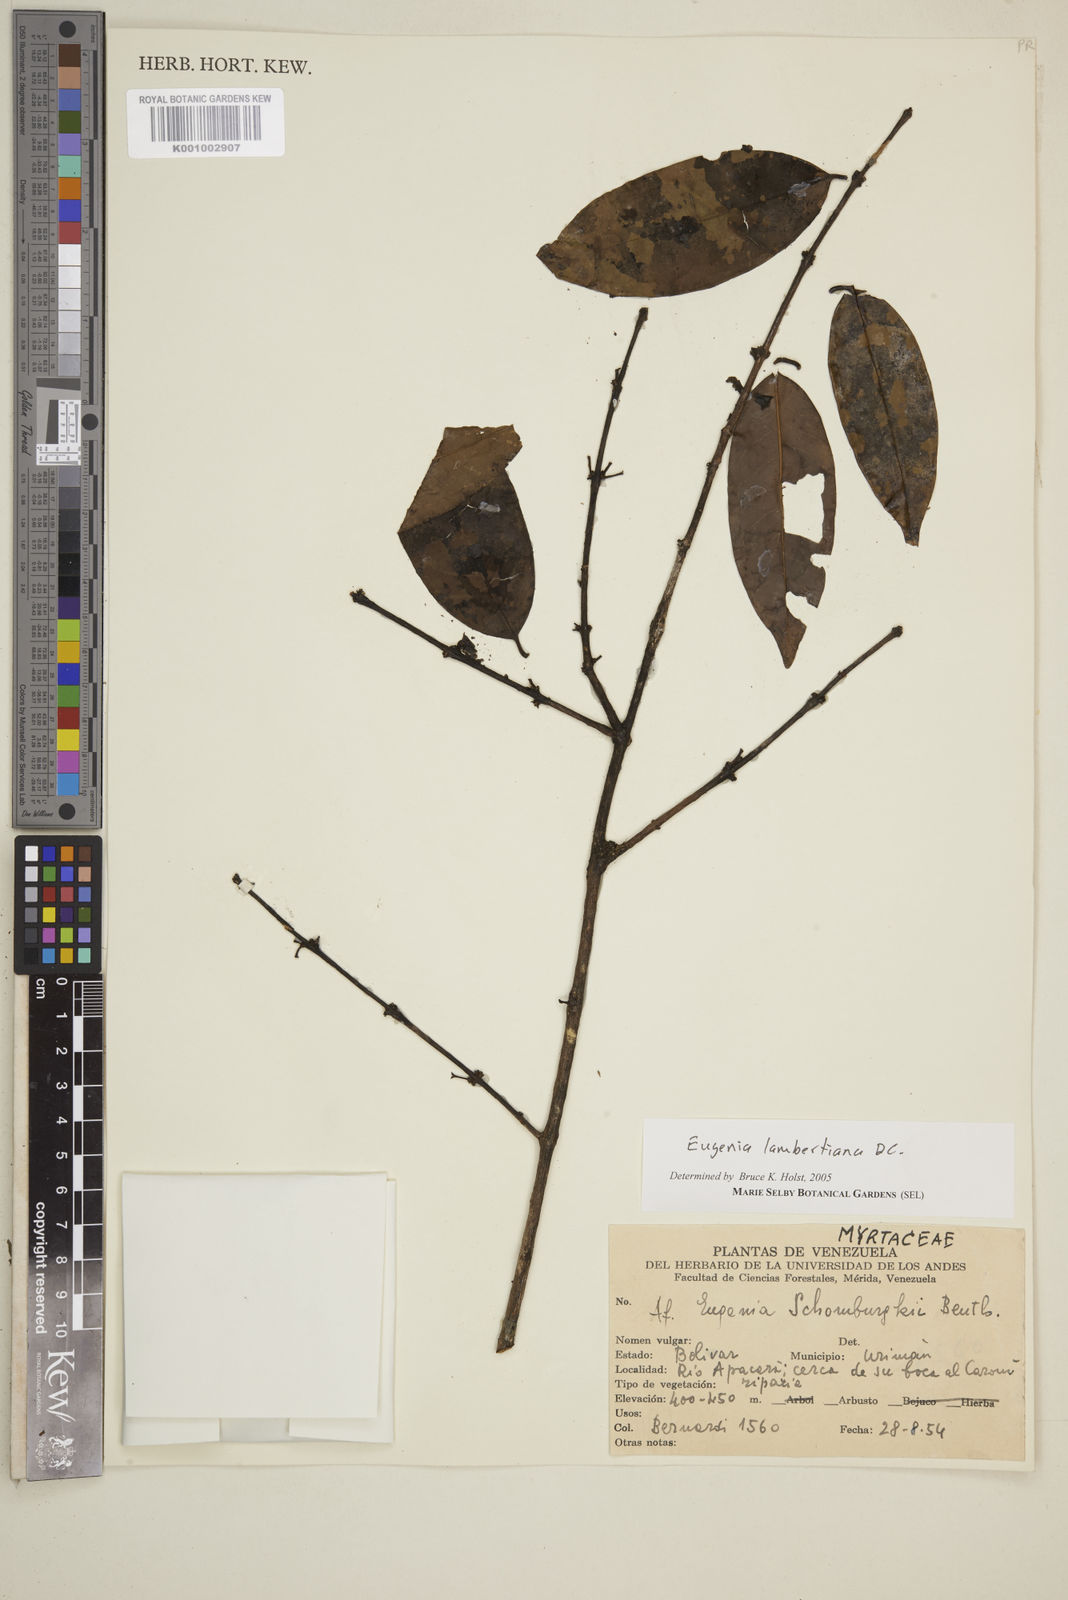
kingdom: Plantae
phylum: Tracheophyta
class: Magnoliopsida
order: Myrtales
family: Myrtaceae
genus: Eugenia
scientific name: Eugenia lambertiana
